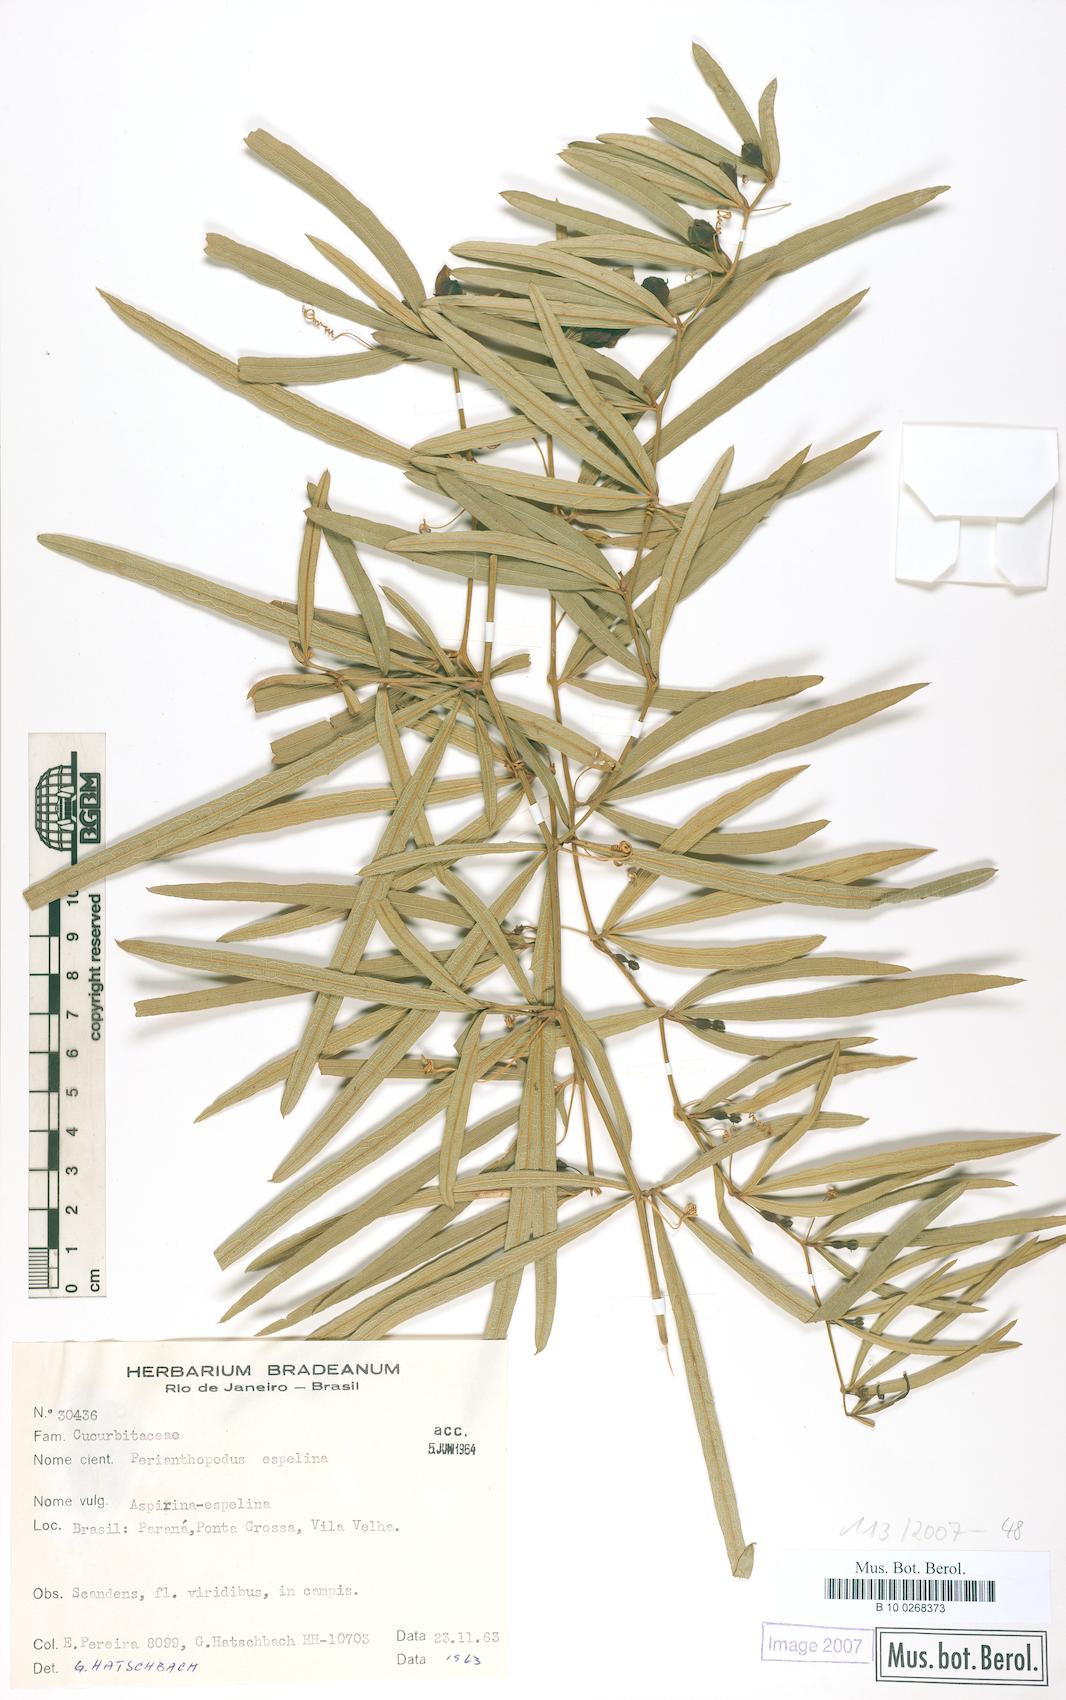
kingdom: Plantae
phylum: Tracheophyta
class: Magnoliopsida
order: Cucurbitales
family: Cucurbitaceae
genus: Cayaponia
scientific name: Cayaponia espelina
